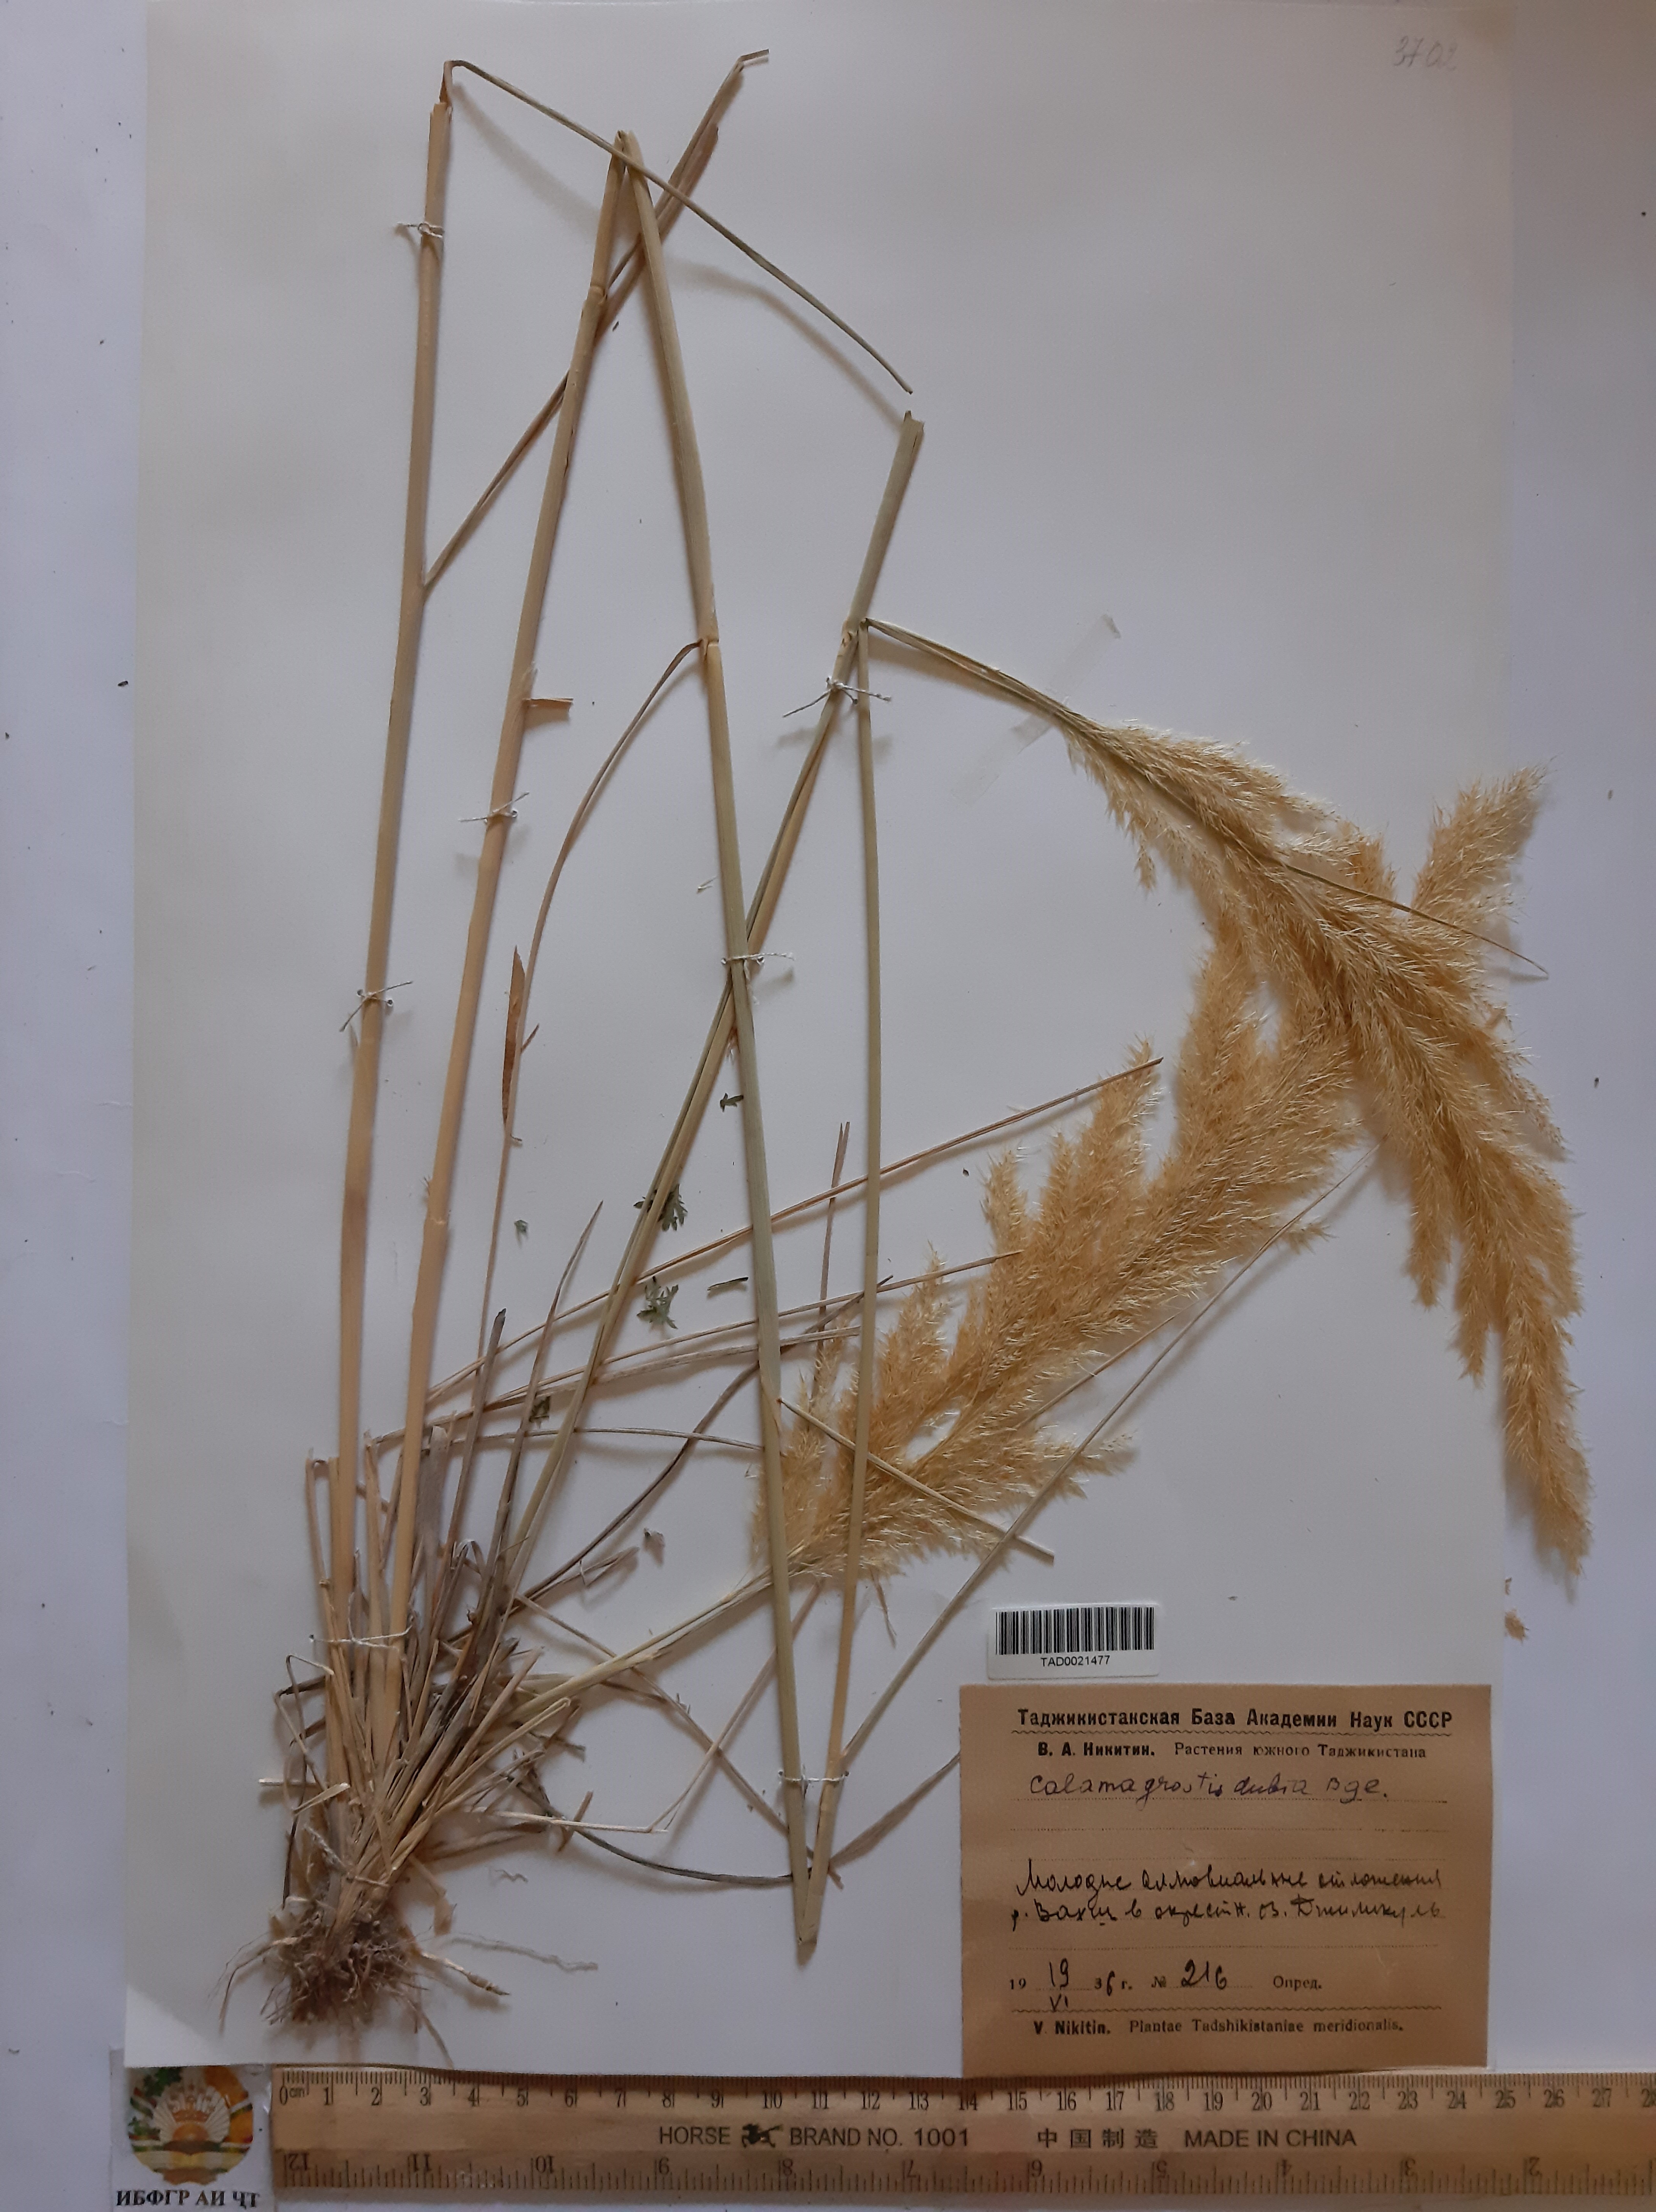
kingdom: Plantae
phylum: Tracheophyta
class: Liliopsida
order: Poales
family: Poaceae
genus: Calamagrostis
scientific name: Calamagrostis pseudophragmites
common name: Coastal small-reed
